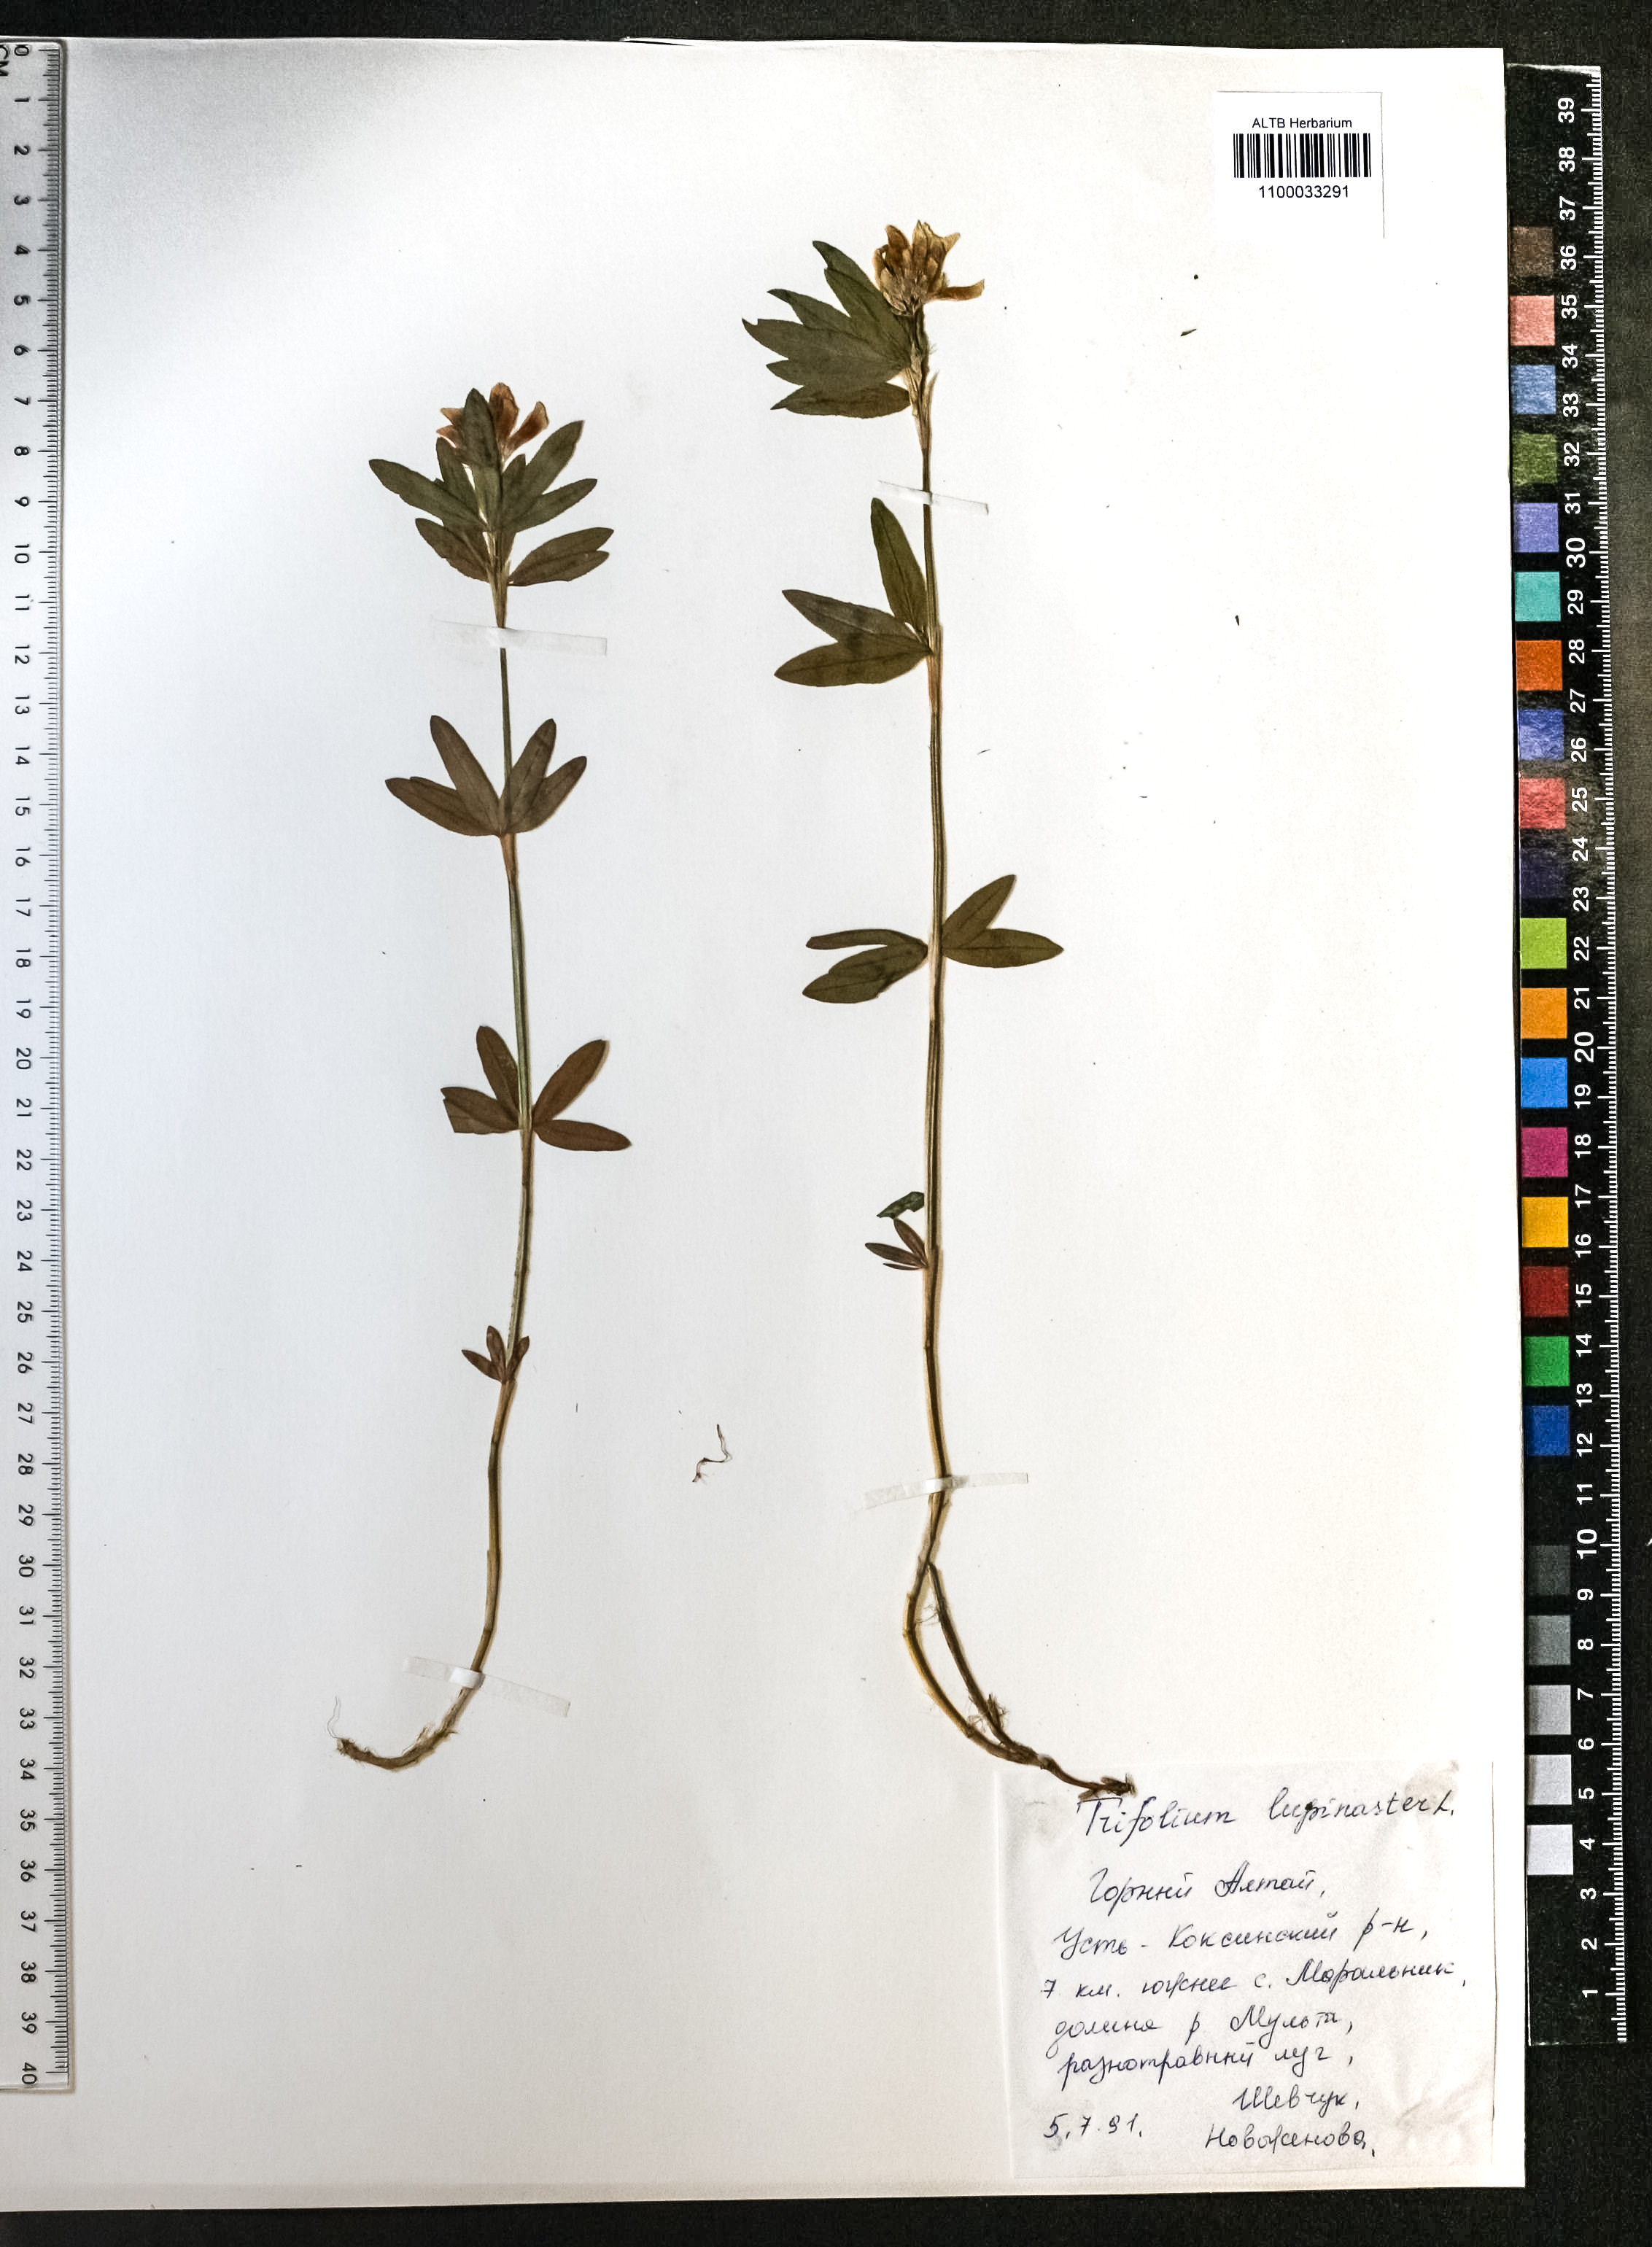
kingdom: Plantae
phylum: Tracheophyta
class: Magnoliopsida
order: Fabales
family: Fabaceae
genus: Trifolium
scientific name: Trifolium lupinaster
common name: Lupine clover
